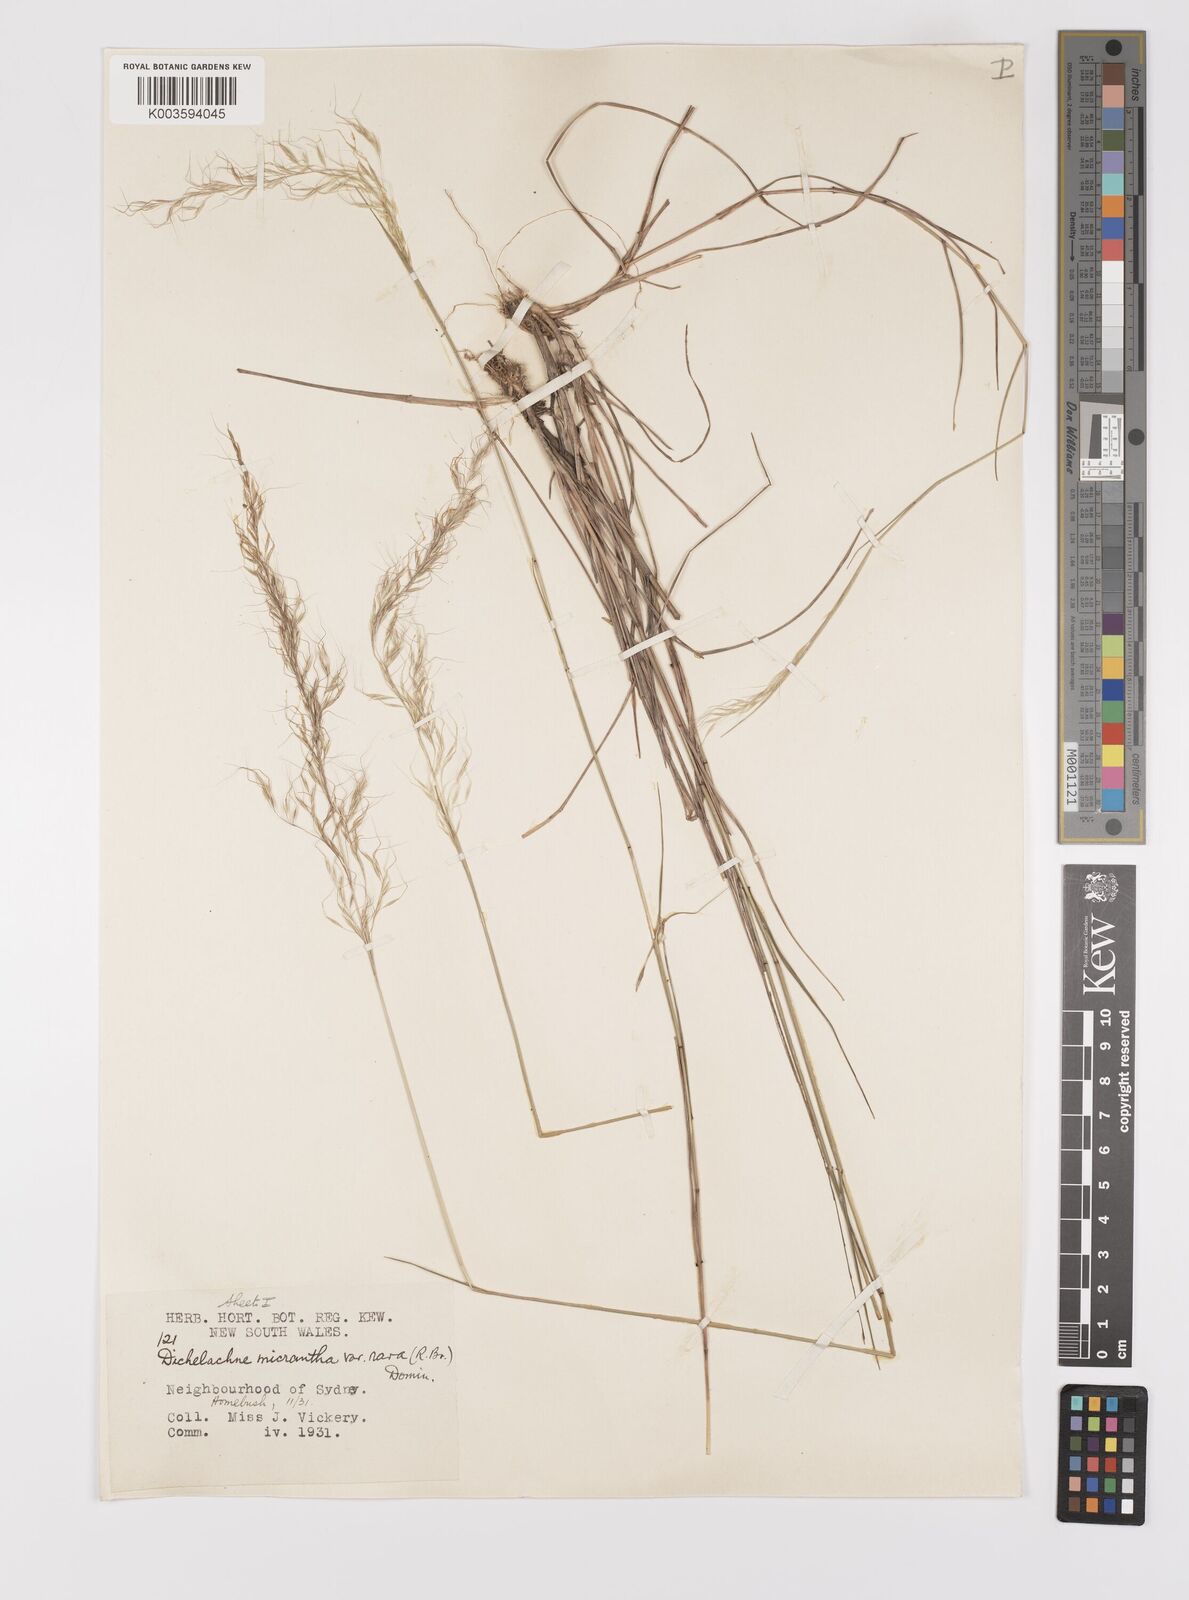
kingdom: Plantae
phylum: Tracheophyta
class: Liliopsida
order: Poales
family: Poaceae
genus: Dichelachne
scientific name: Dichelachne rara
